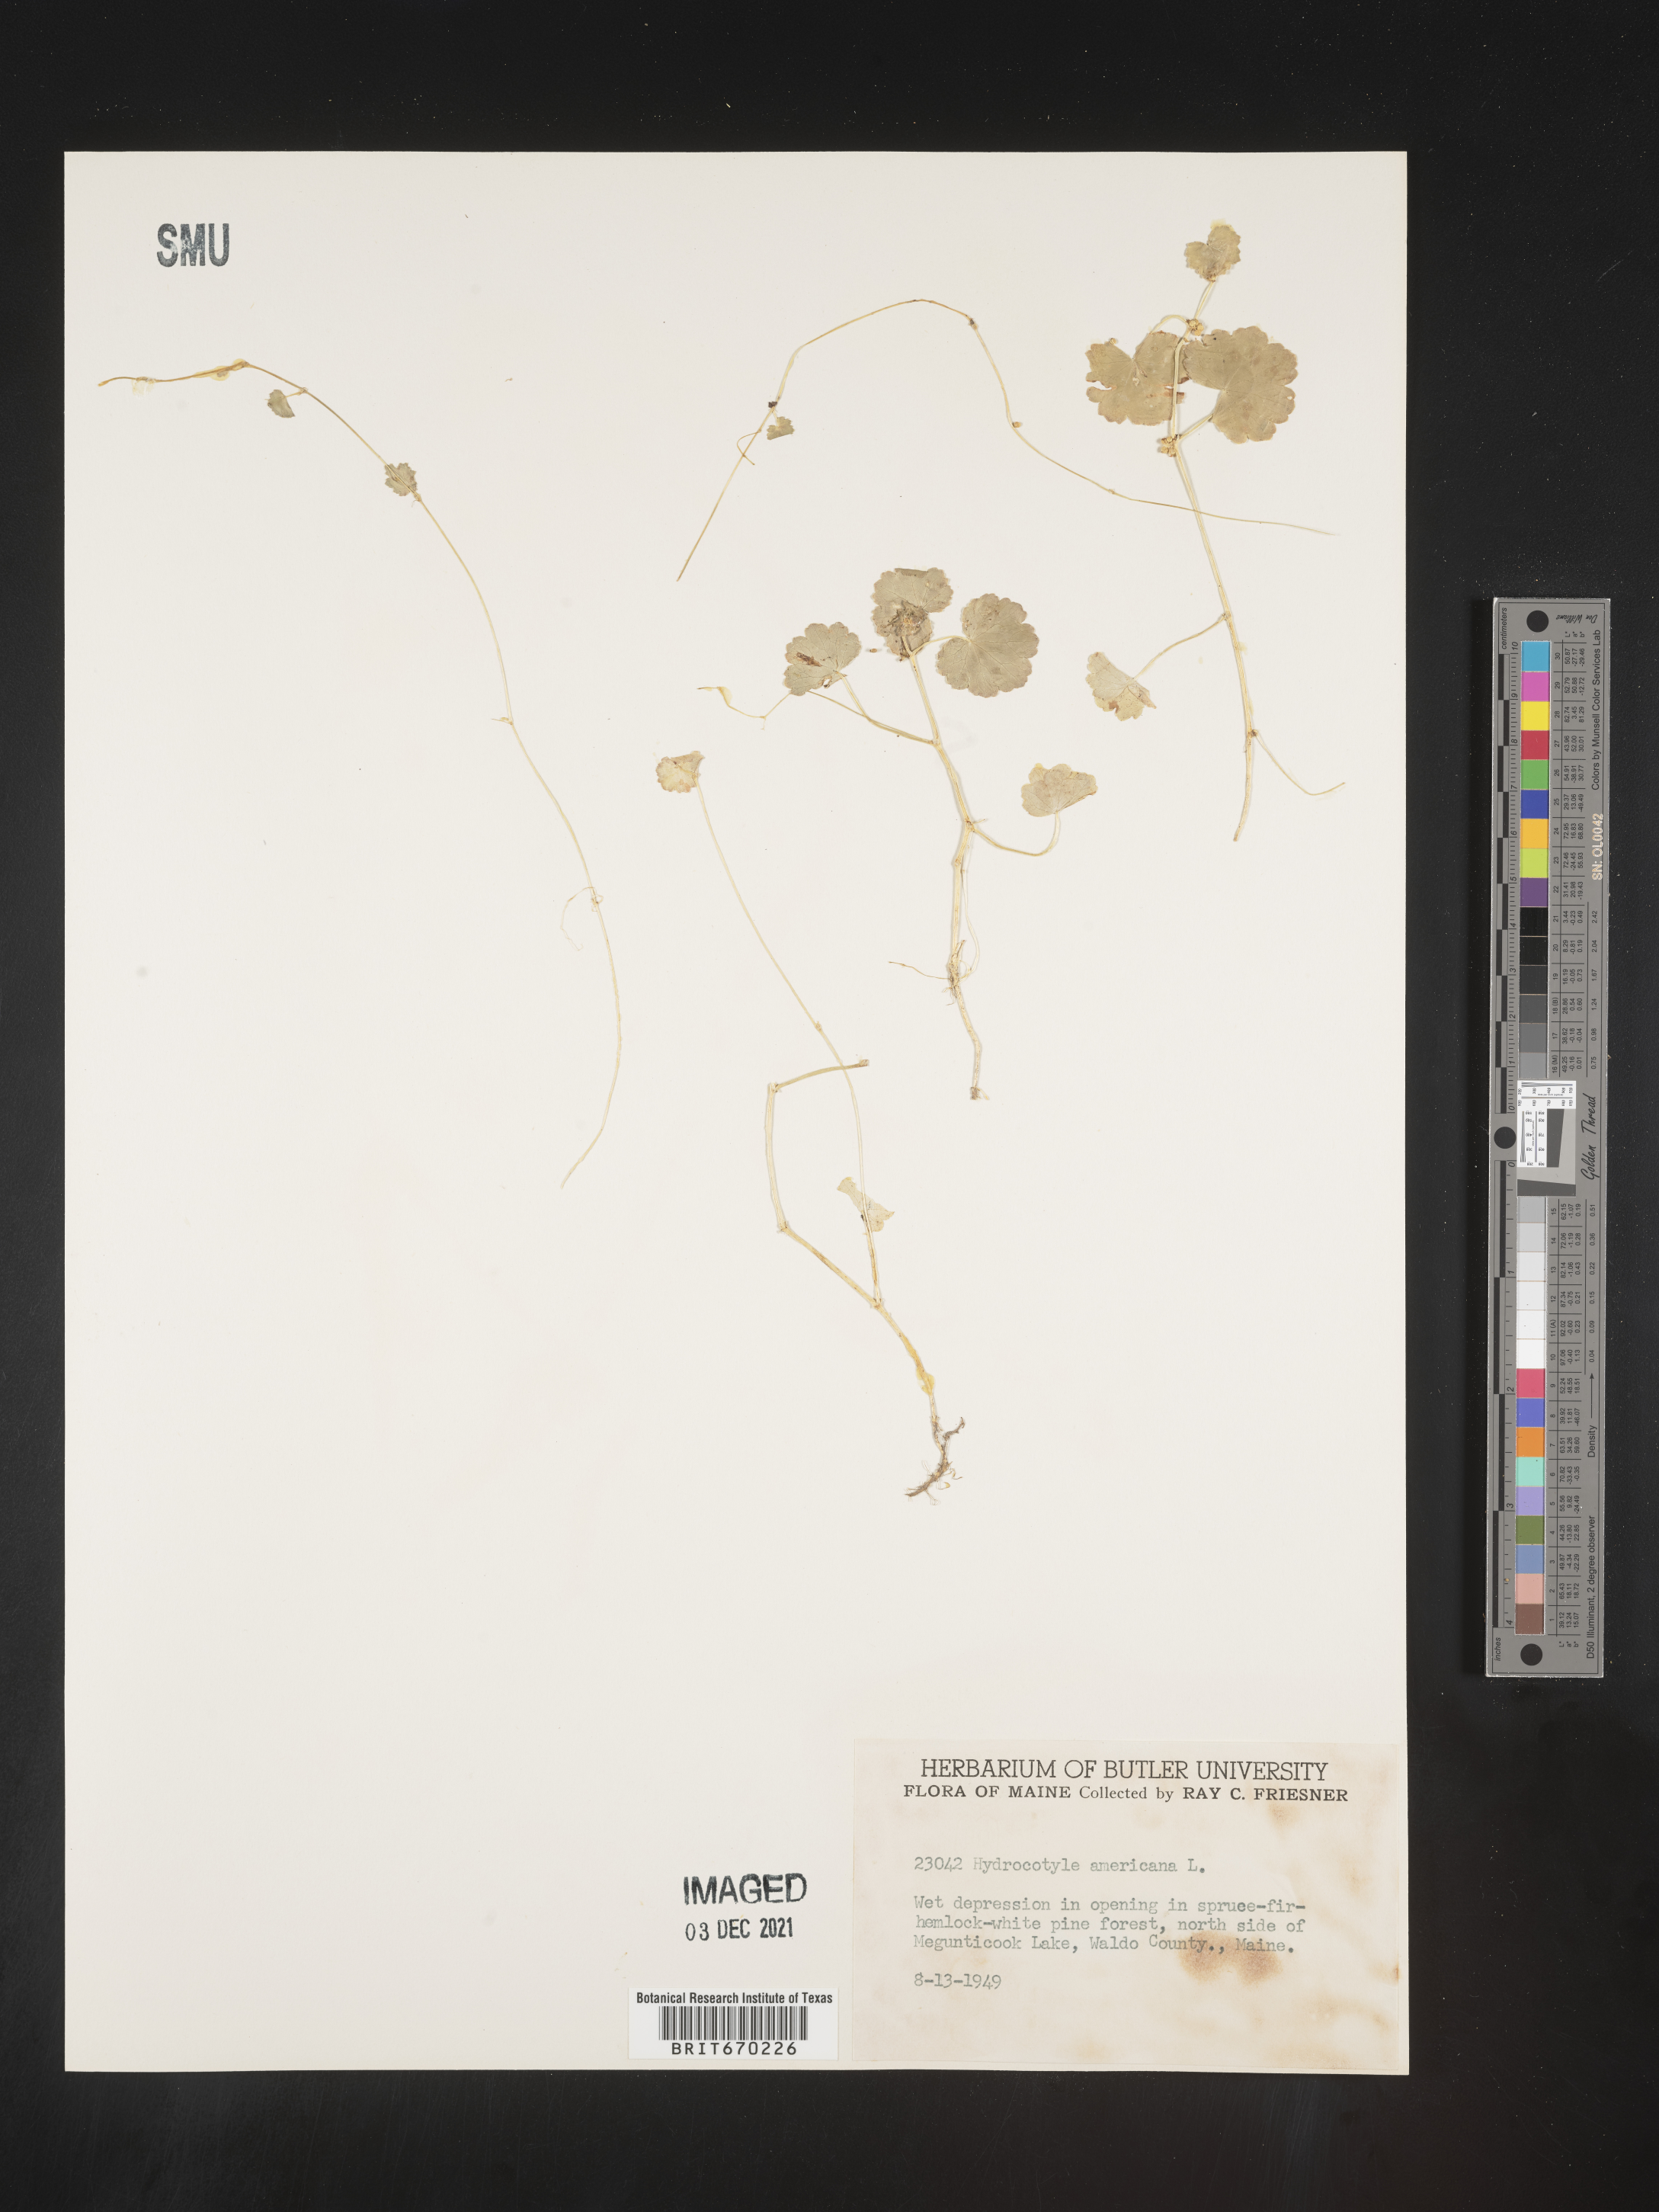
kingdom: Plantae
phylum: Tracheophyta
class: Magnoliopsida
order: Apiales
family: Araliaceae
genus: Hydrocotyle
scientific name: Hydrocotyle
